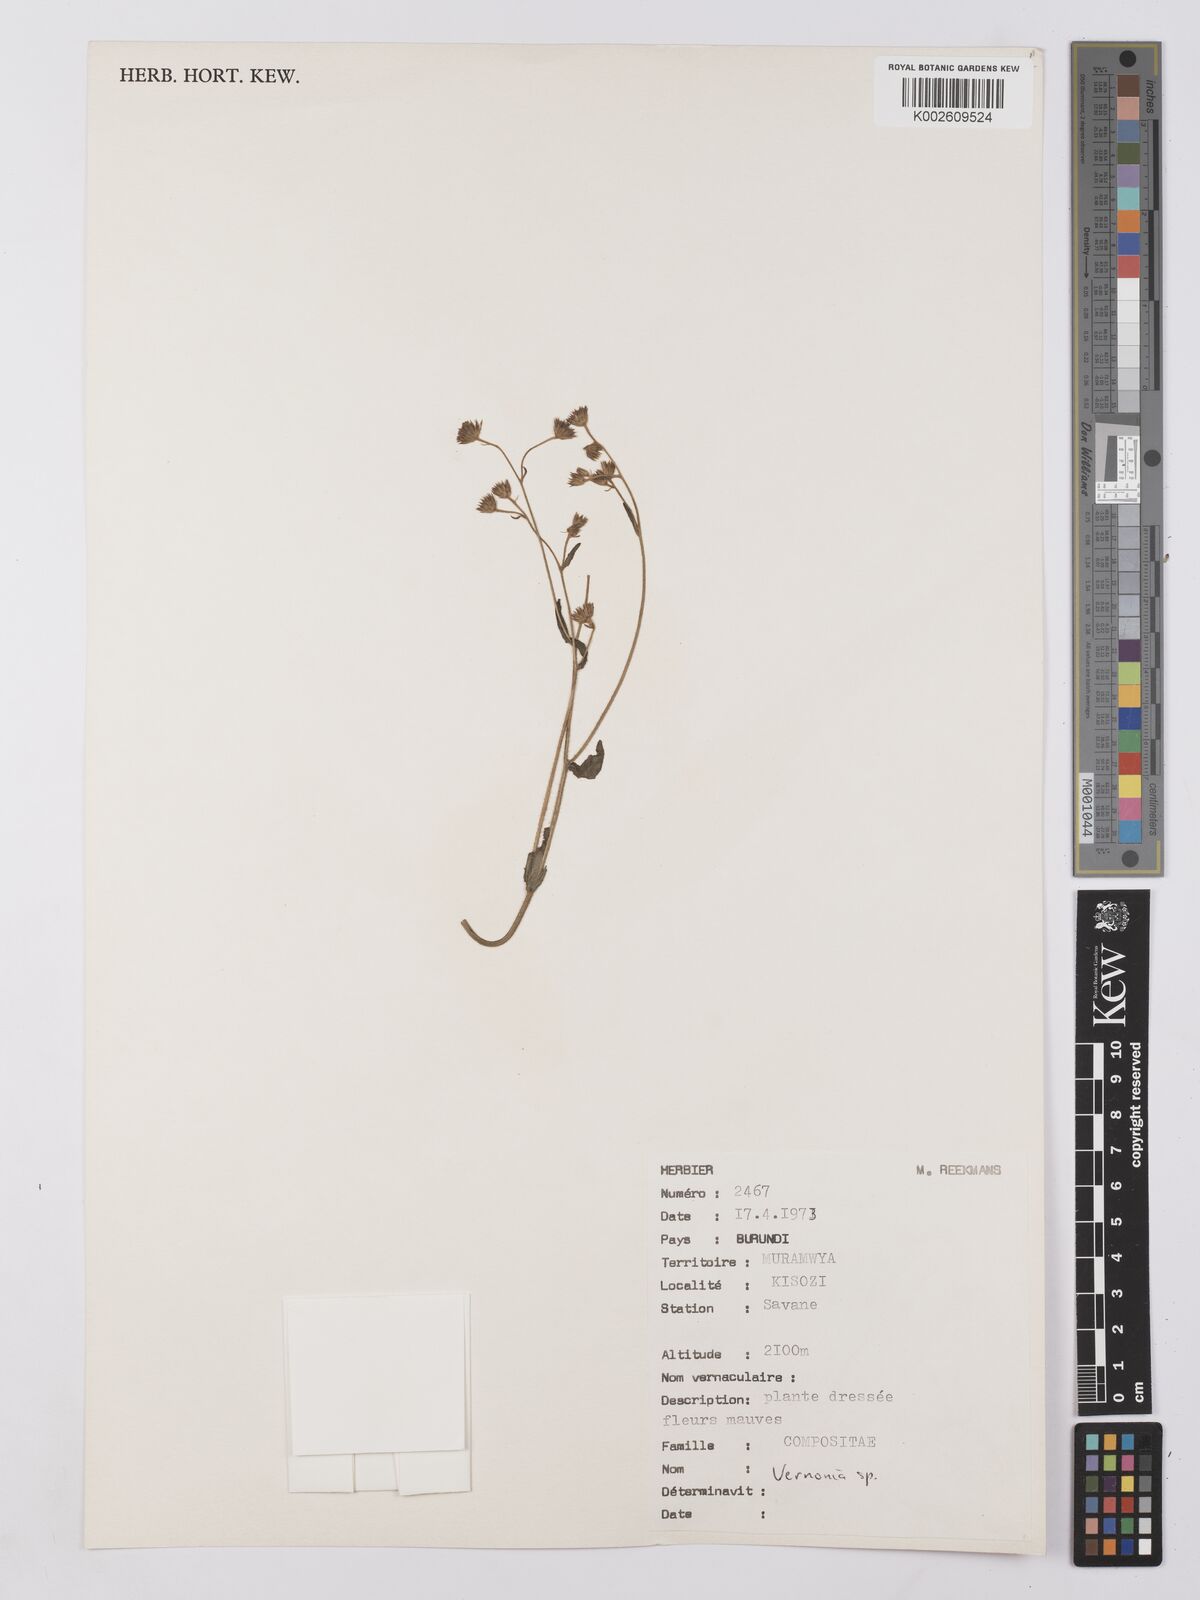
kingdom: Plantae
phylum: Tracheophyta
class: Magnoliopsida
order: Asterales
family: Asteraceae
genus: Vernonia
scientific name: Vernonia
